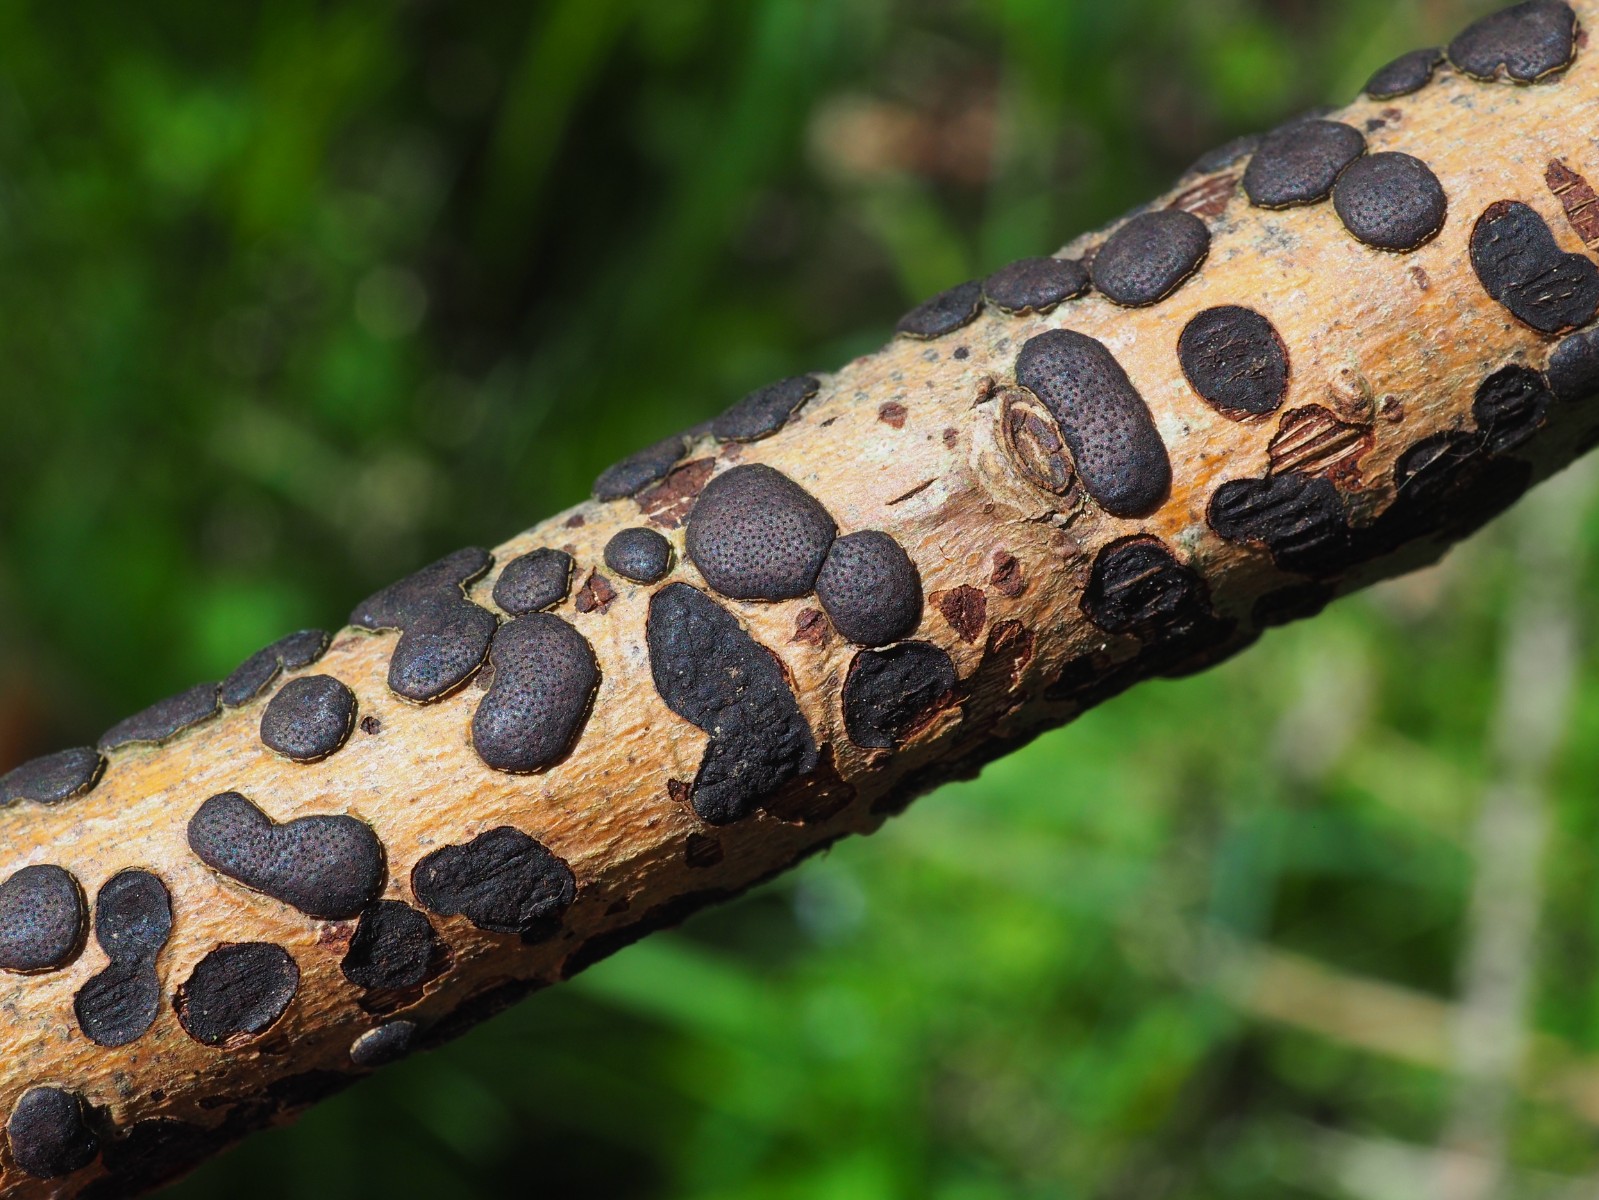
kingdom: Fungi
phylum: Ascomycota
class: Sordariomycetes
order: Xylariales
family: Diatrypaceae
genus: Diatrype
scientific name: Diatrype bullata
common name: pile-kulskorpe
